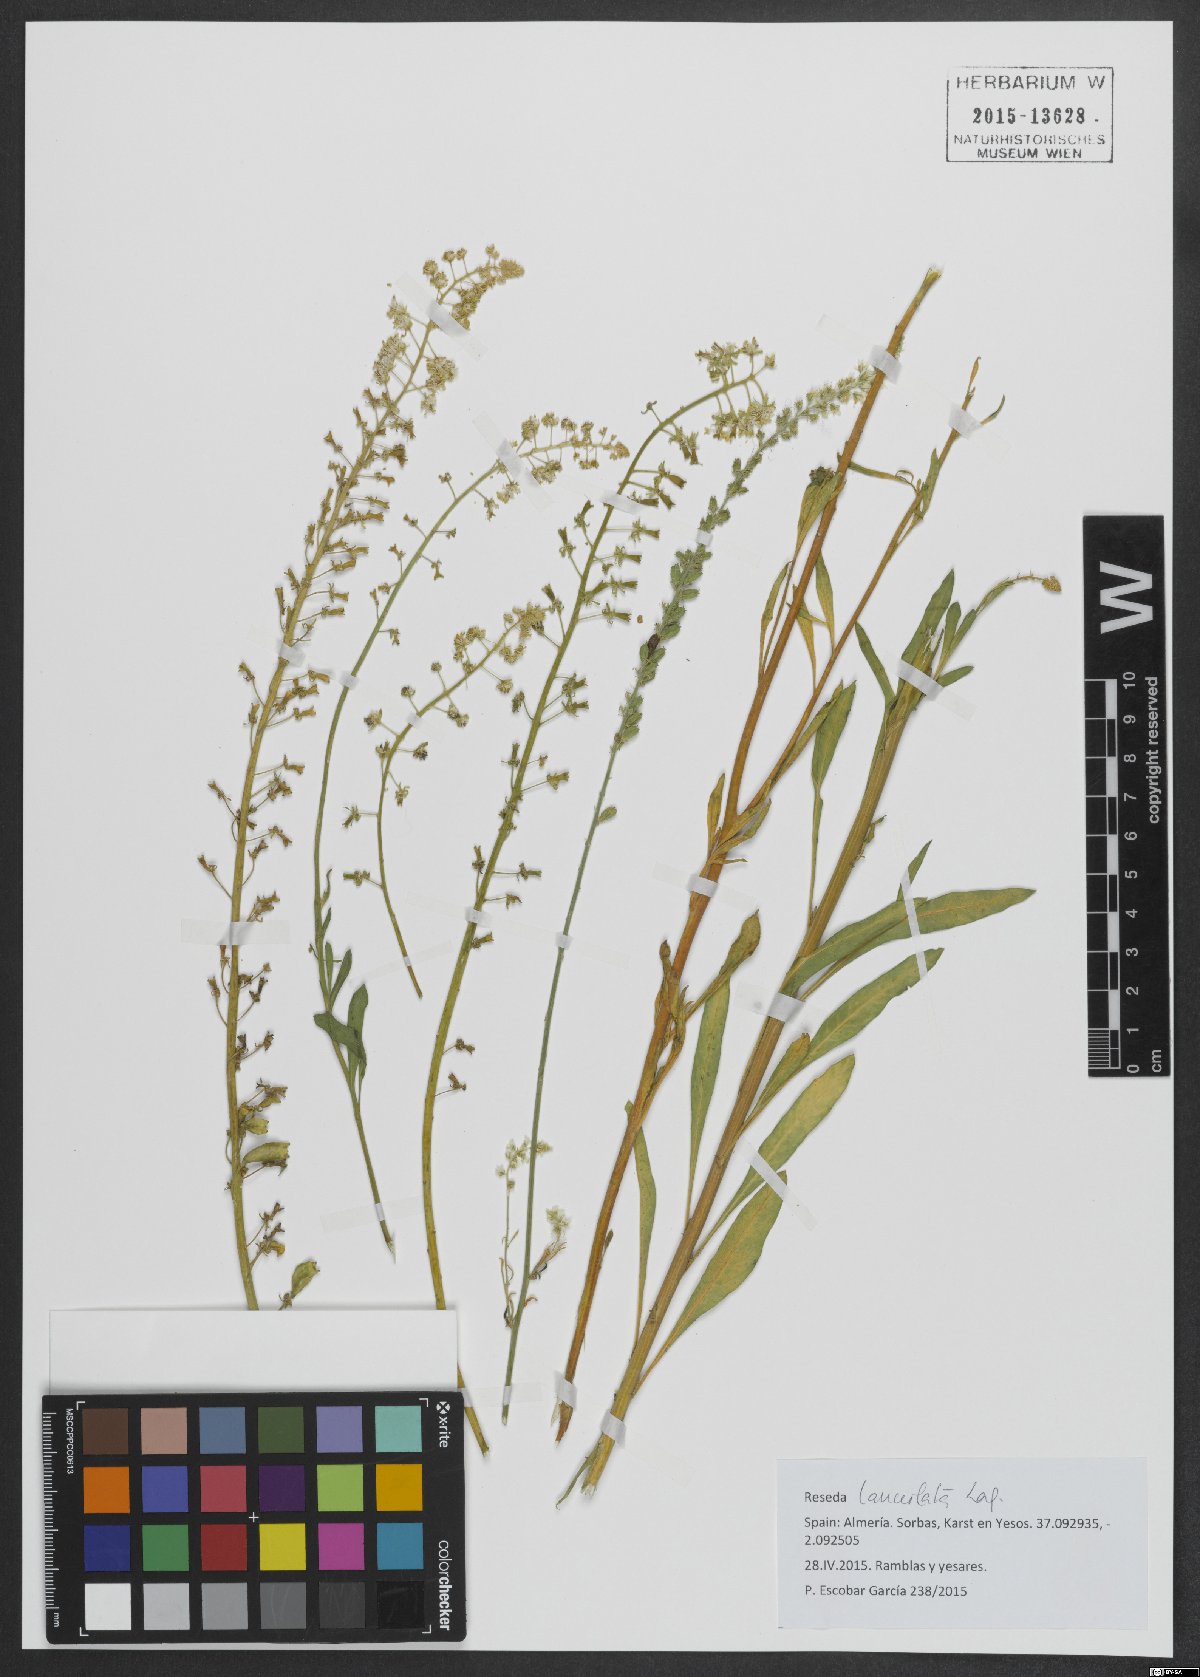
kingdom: Plantae
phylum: Tracheophyta
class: Magnoliopsida
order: Brassicales
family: Resedaceae
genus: Reseda
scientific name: Reseda lanceolata
